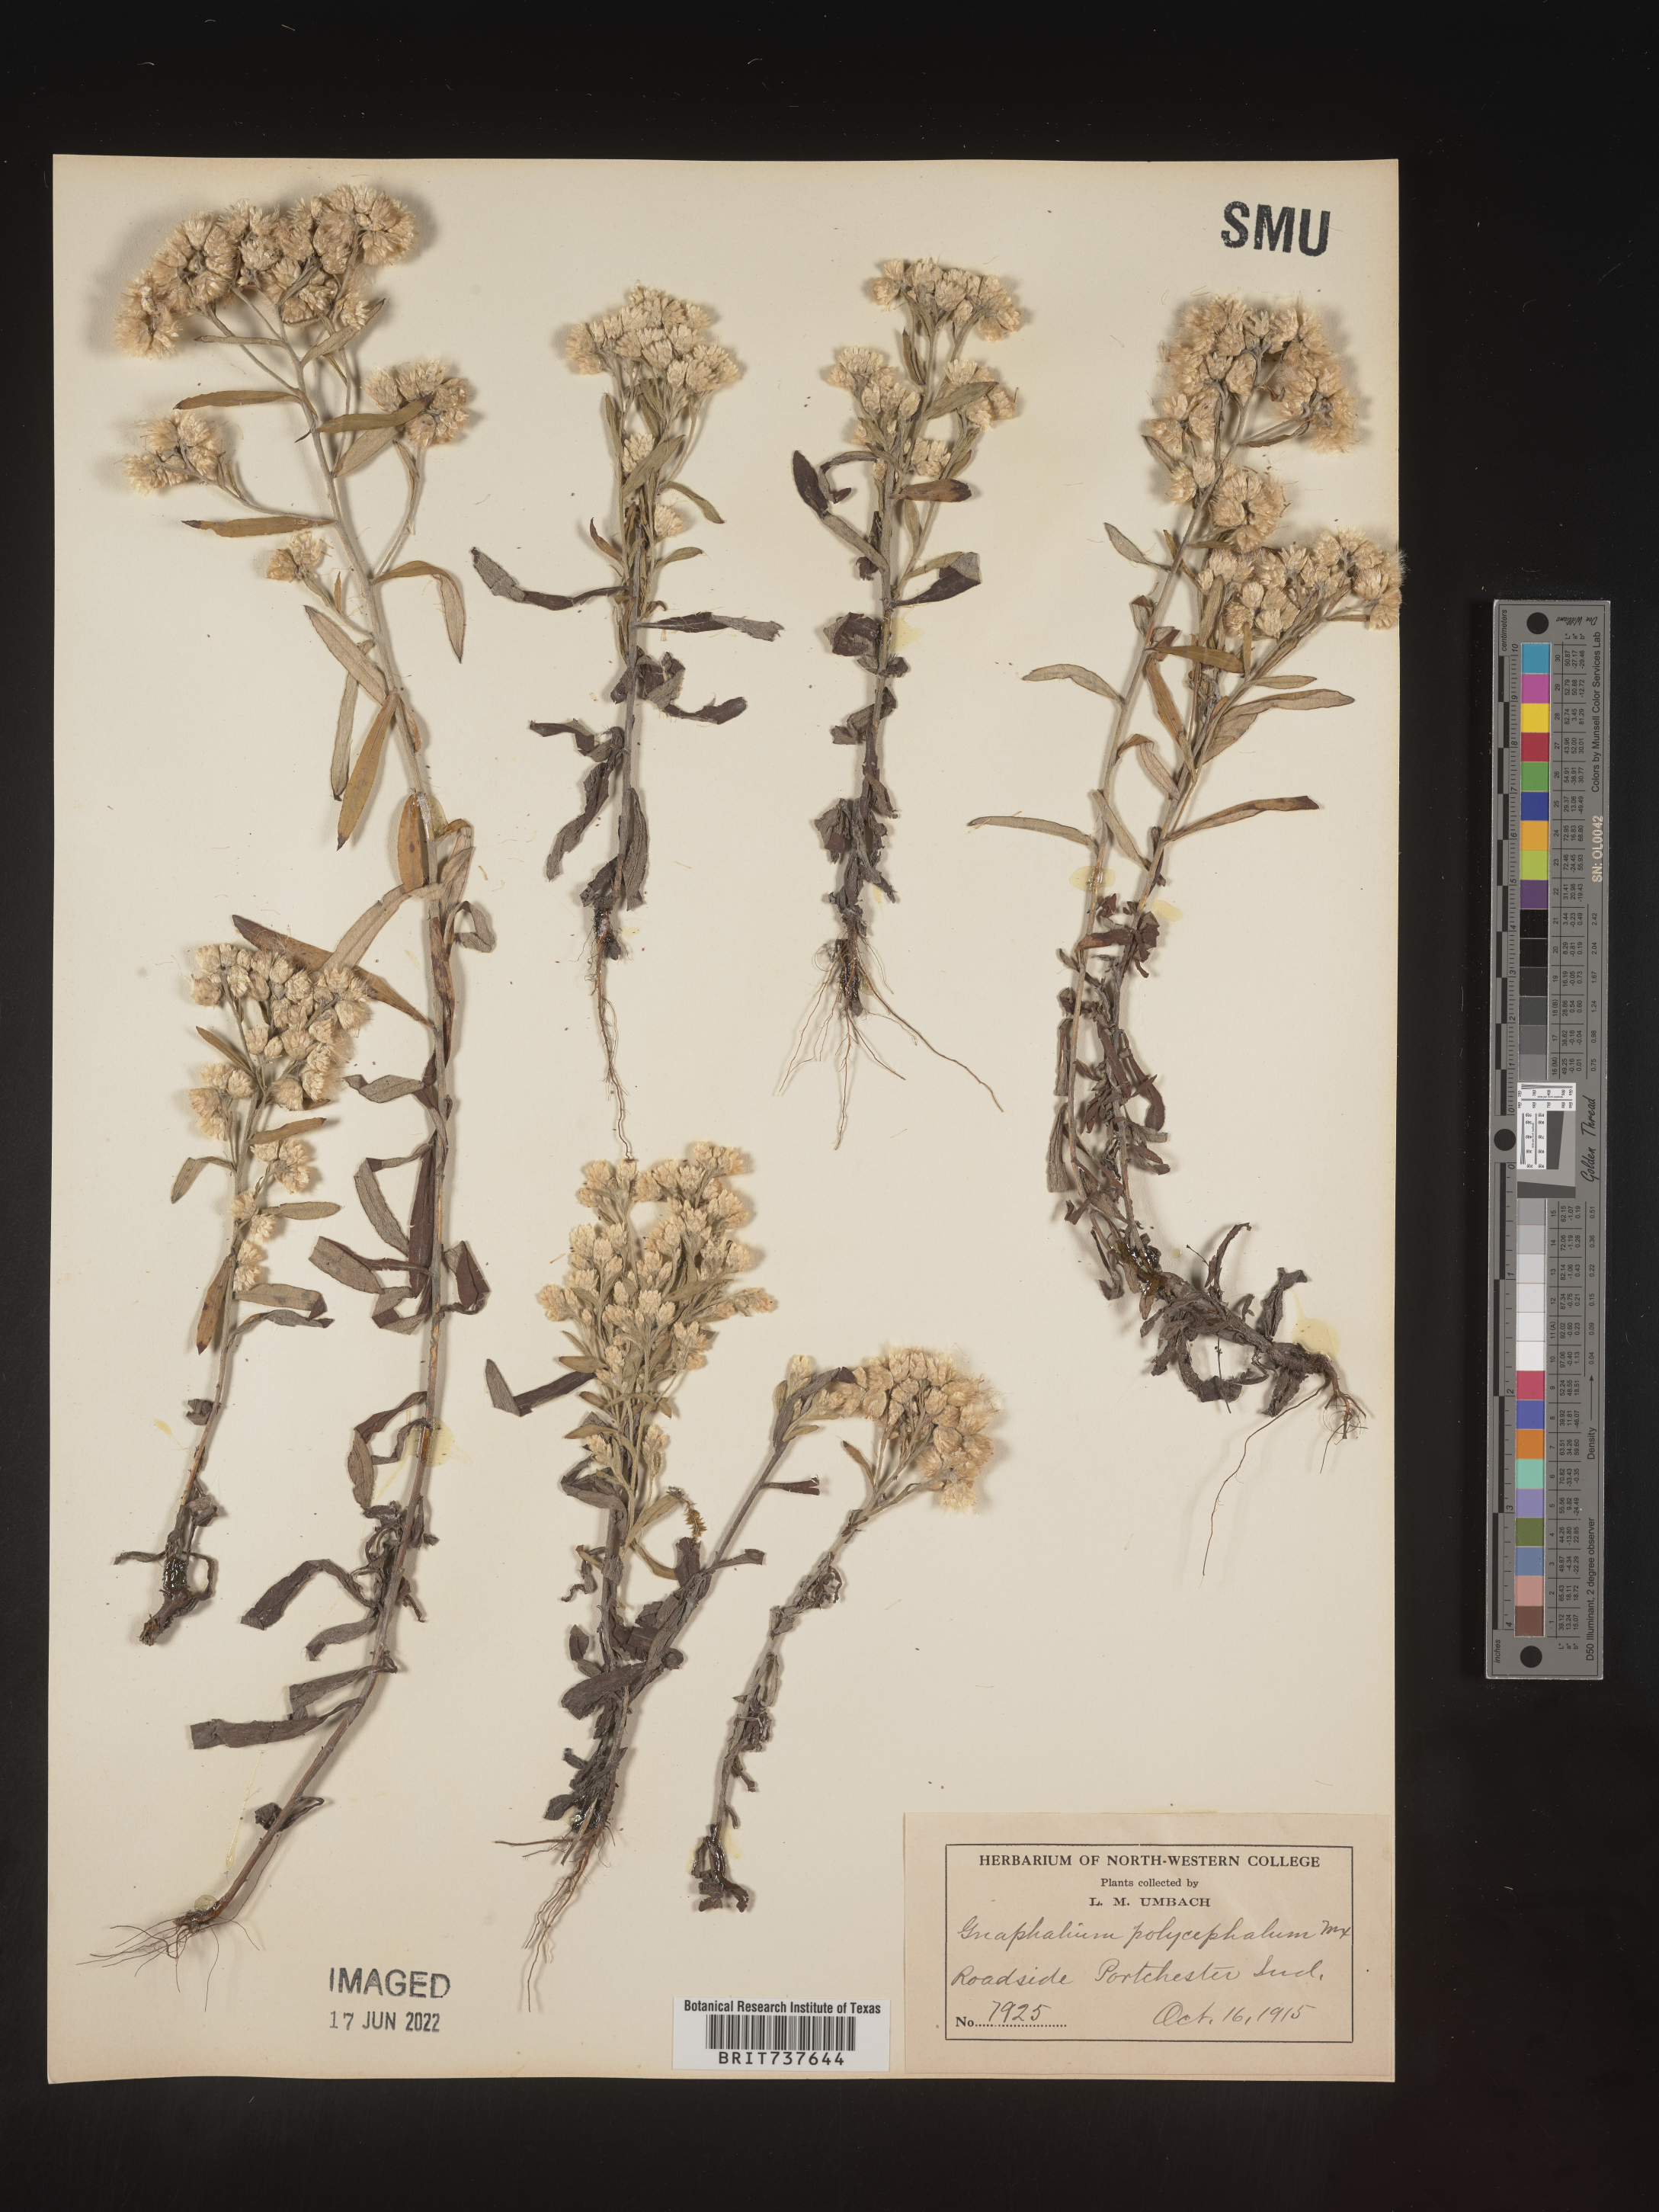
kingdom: Plantae
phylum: Tracheophyta
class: Magnoliopsida
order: Asterales
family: Asteraceae
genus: Pseudognaphalium
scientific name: Pseudognaphalium obtusifolium
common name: Eastern rabbit-tobacco
